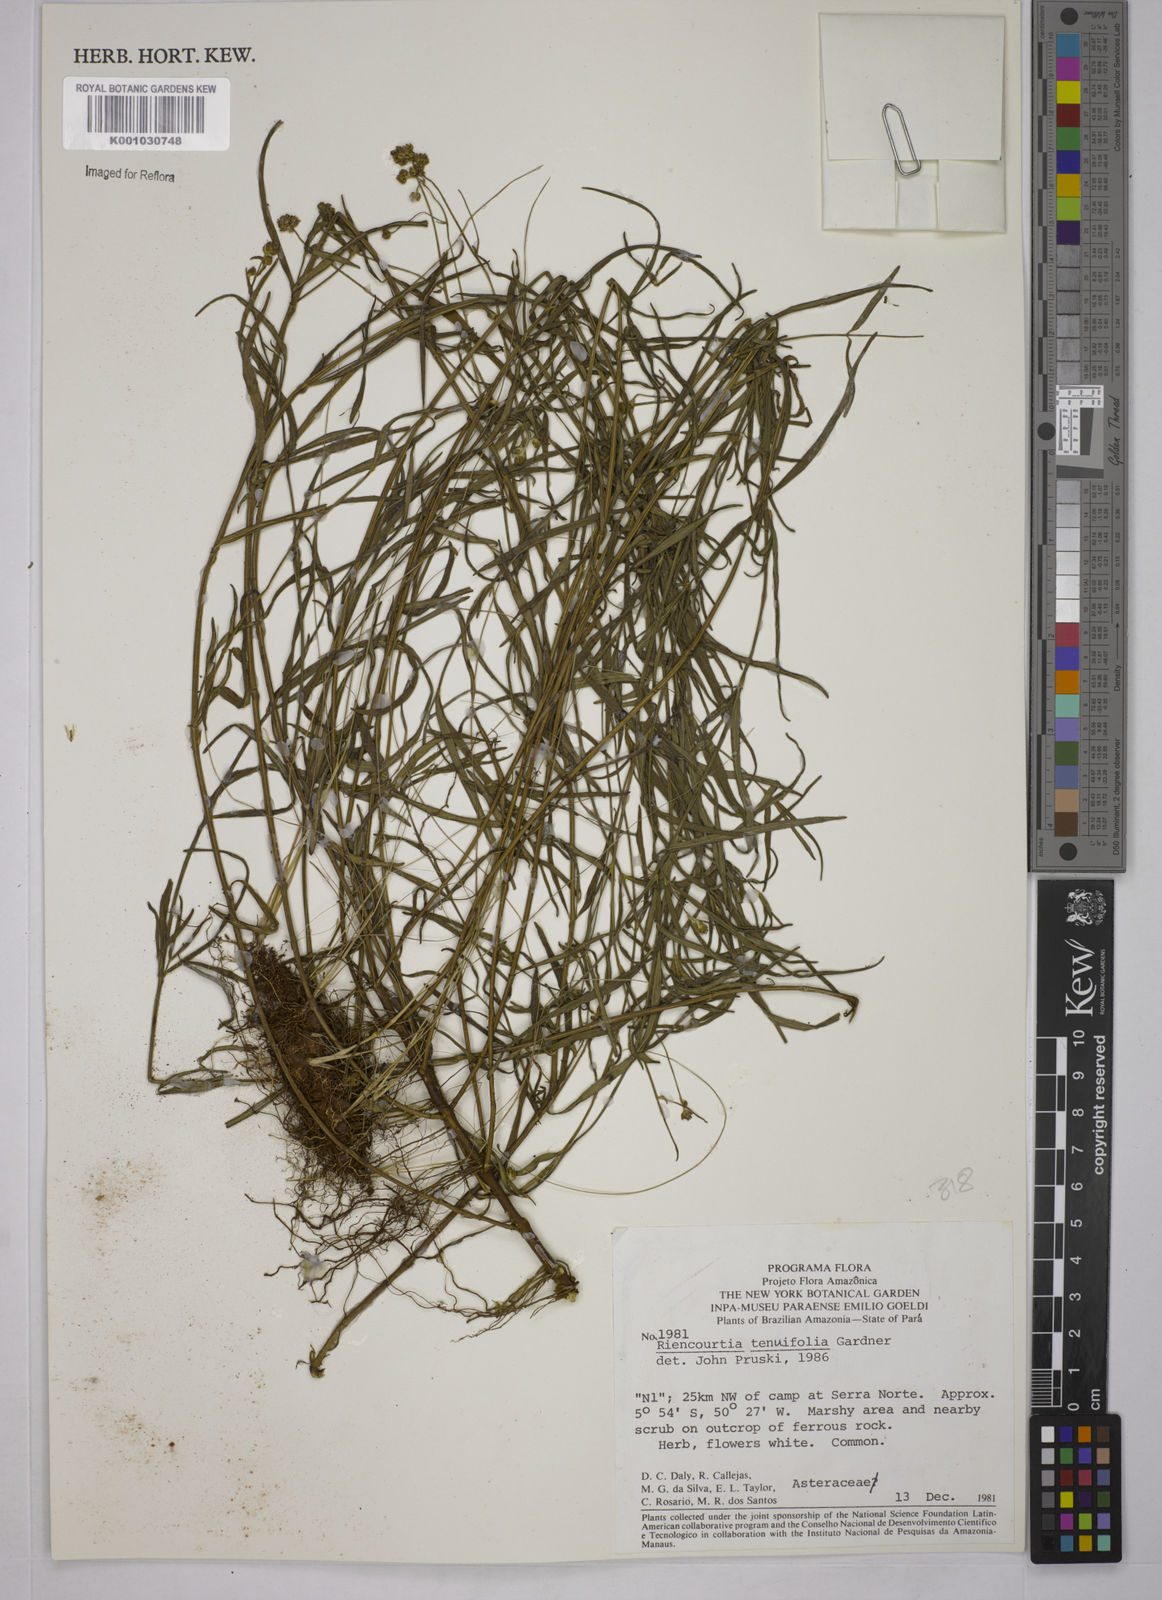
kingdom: Plantae
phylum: Tracheophyta
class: Magnoliopsida
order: Asterales
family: Asteraceae
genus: Riencourtia
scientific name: Riencourtia tenuifolia
